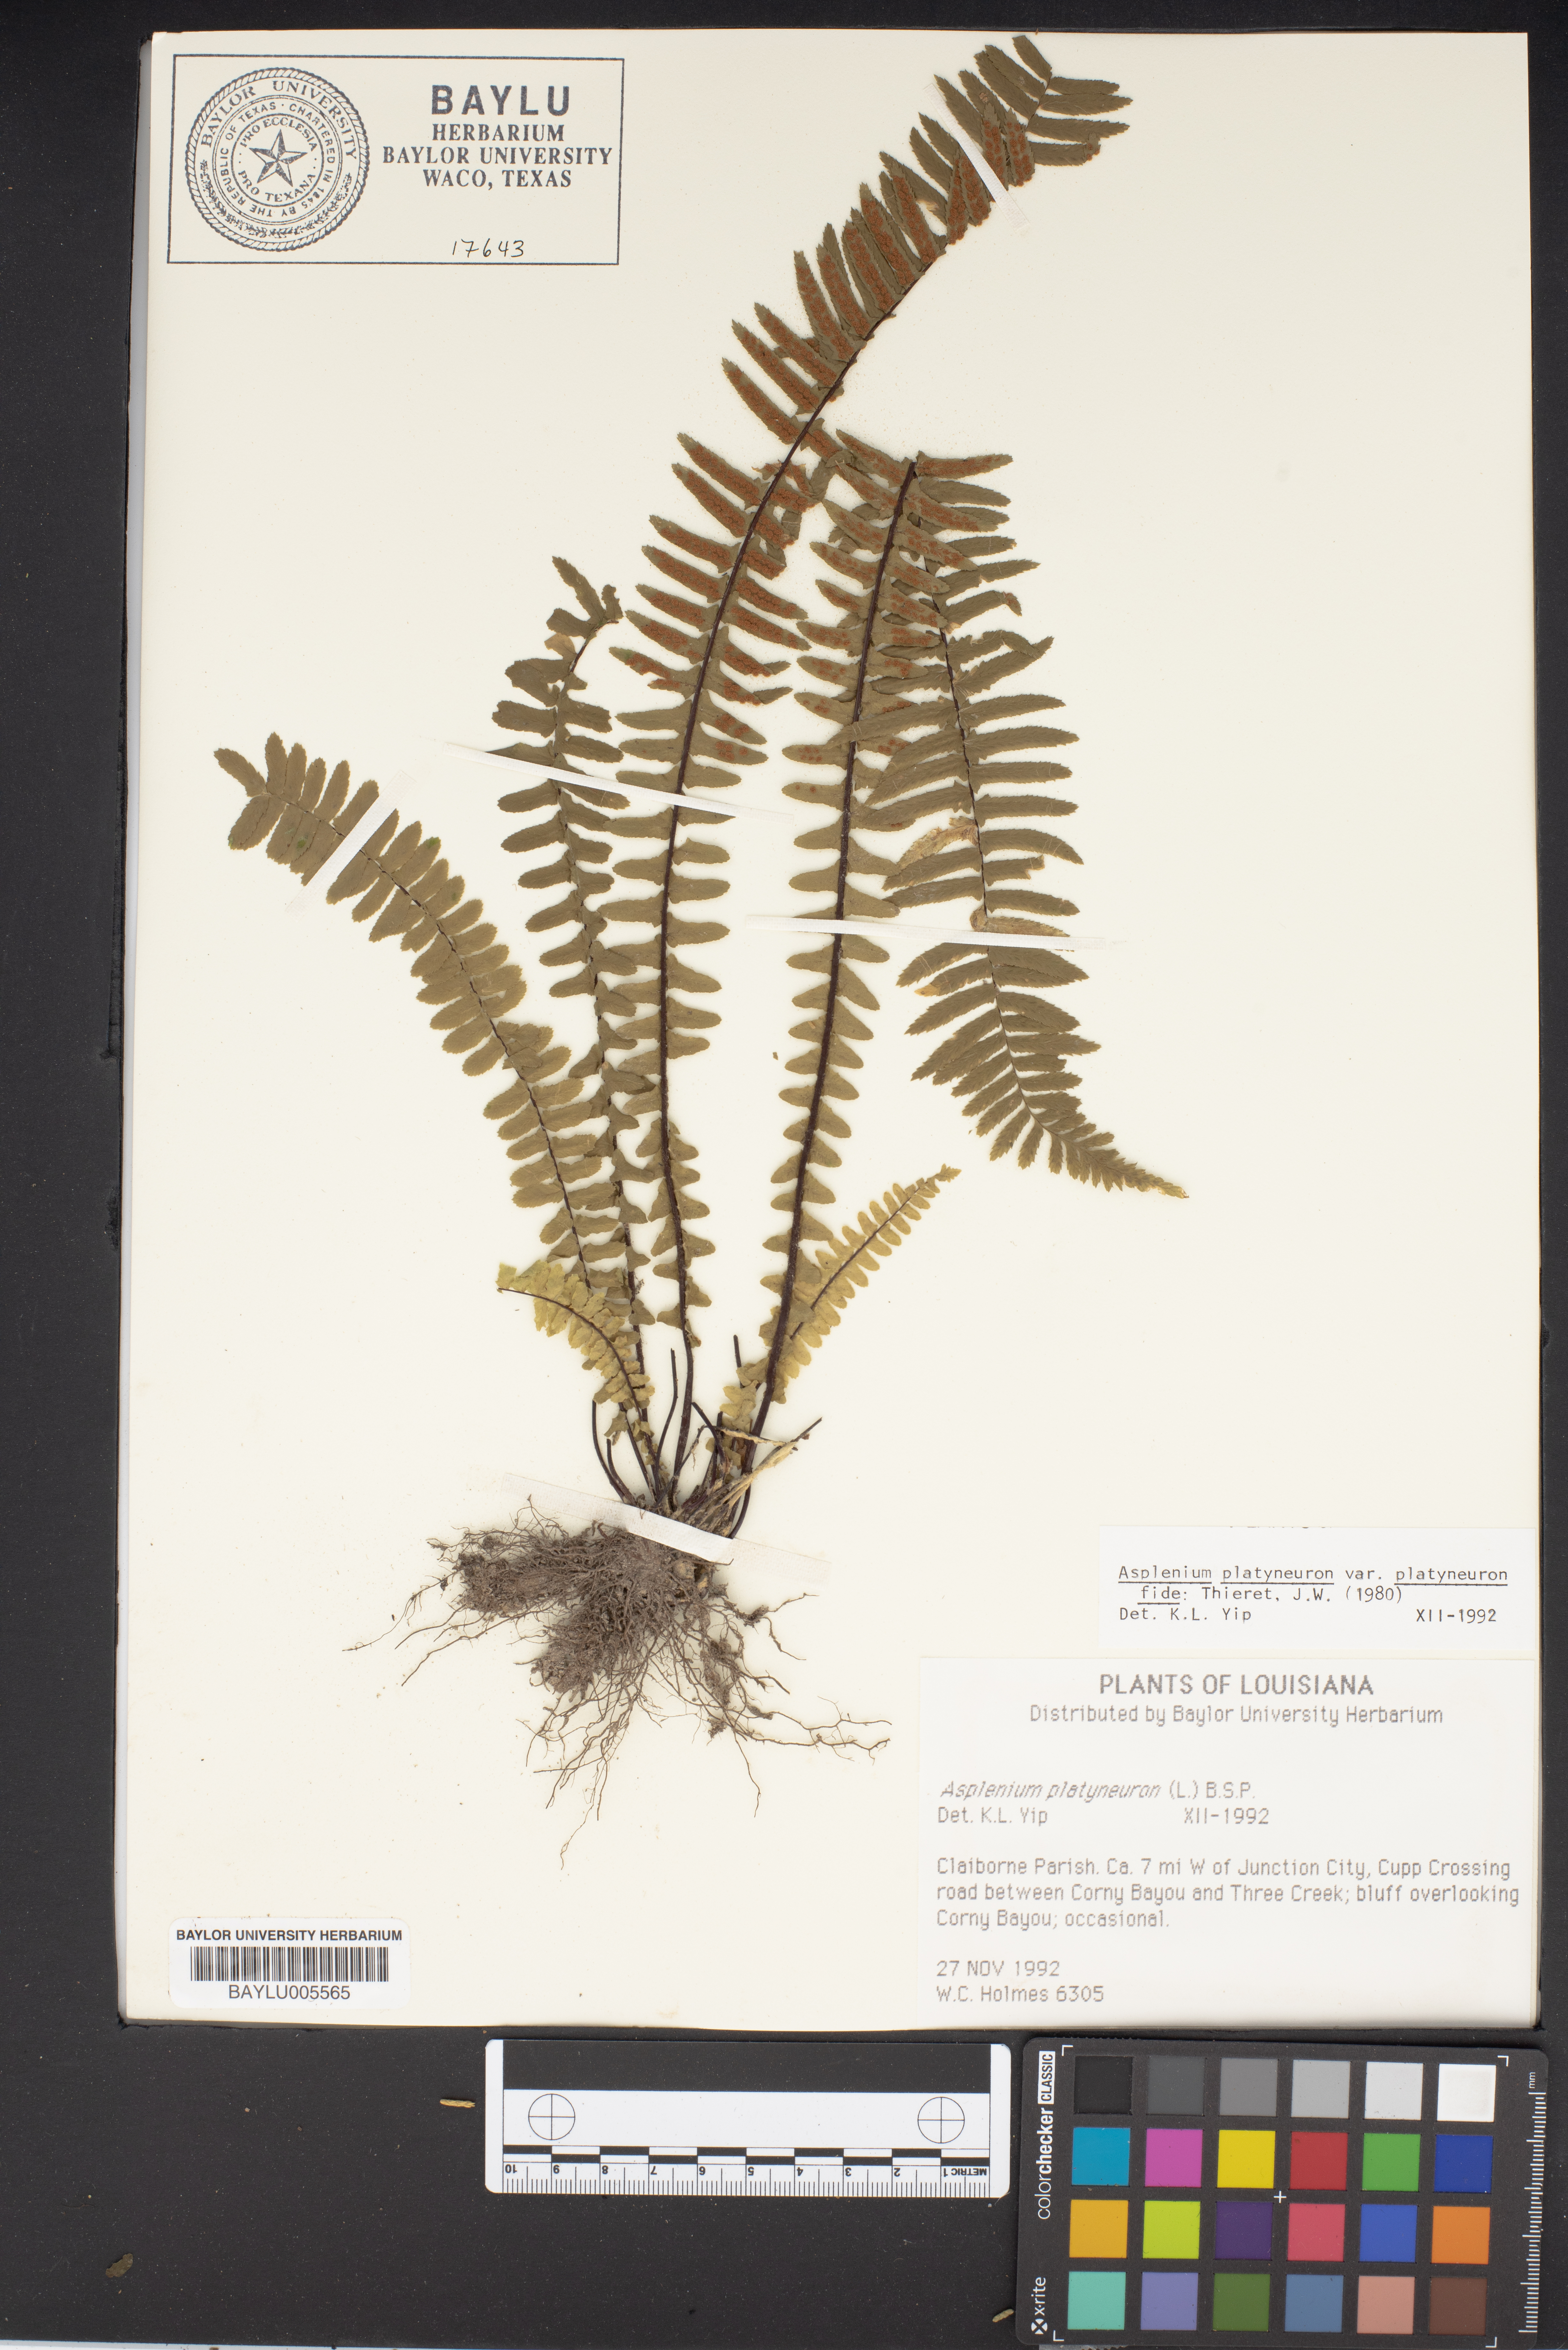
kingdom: Plantae
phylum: Tracheophyta
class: Polypodiopsida
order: Polypodiales
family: Aspleniaceae
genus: Asplenium
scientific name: Asplenium platyneuron
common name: Ebony spleenwort
